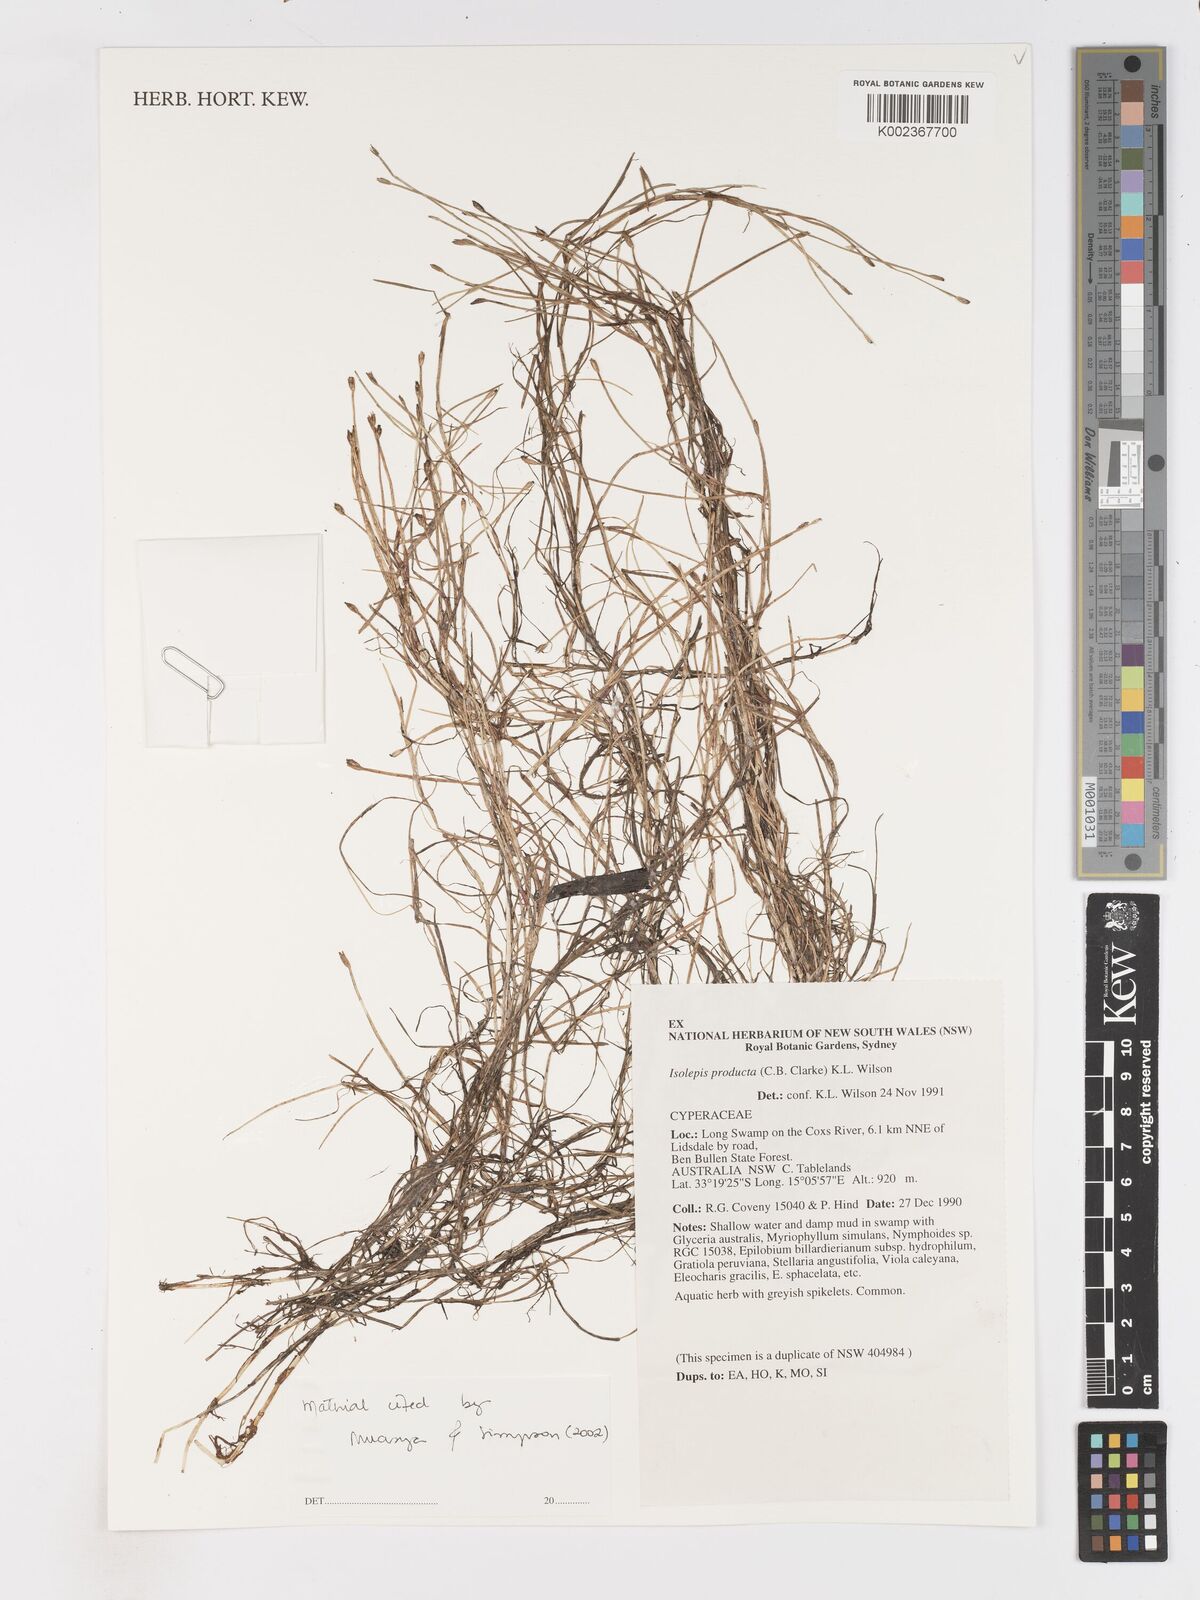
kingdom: Plantae
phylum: Tracheophyta
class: Liliopsida
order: Poales
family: Cyperaceae
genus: Isolepis
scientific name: Isolepis producta
